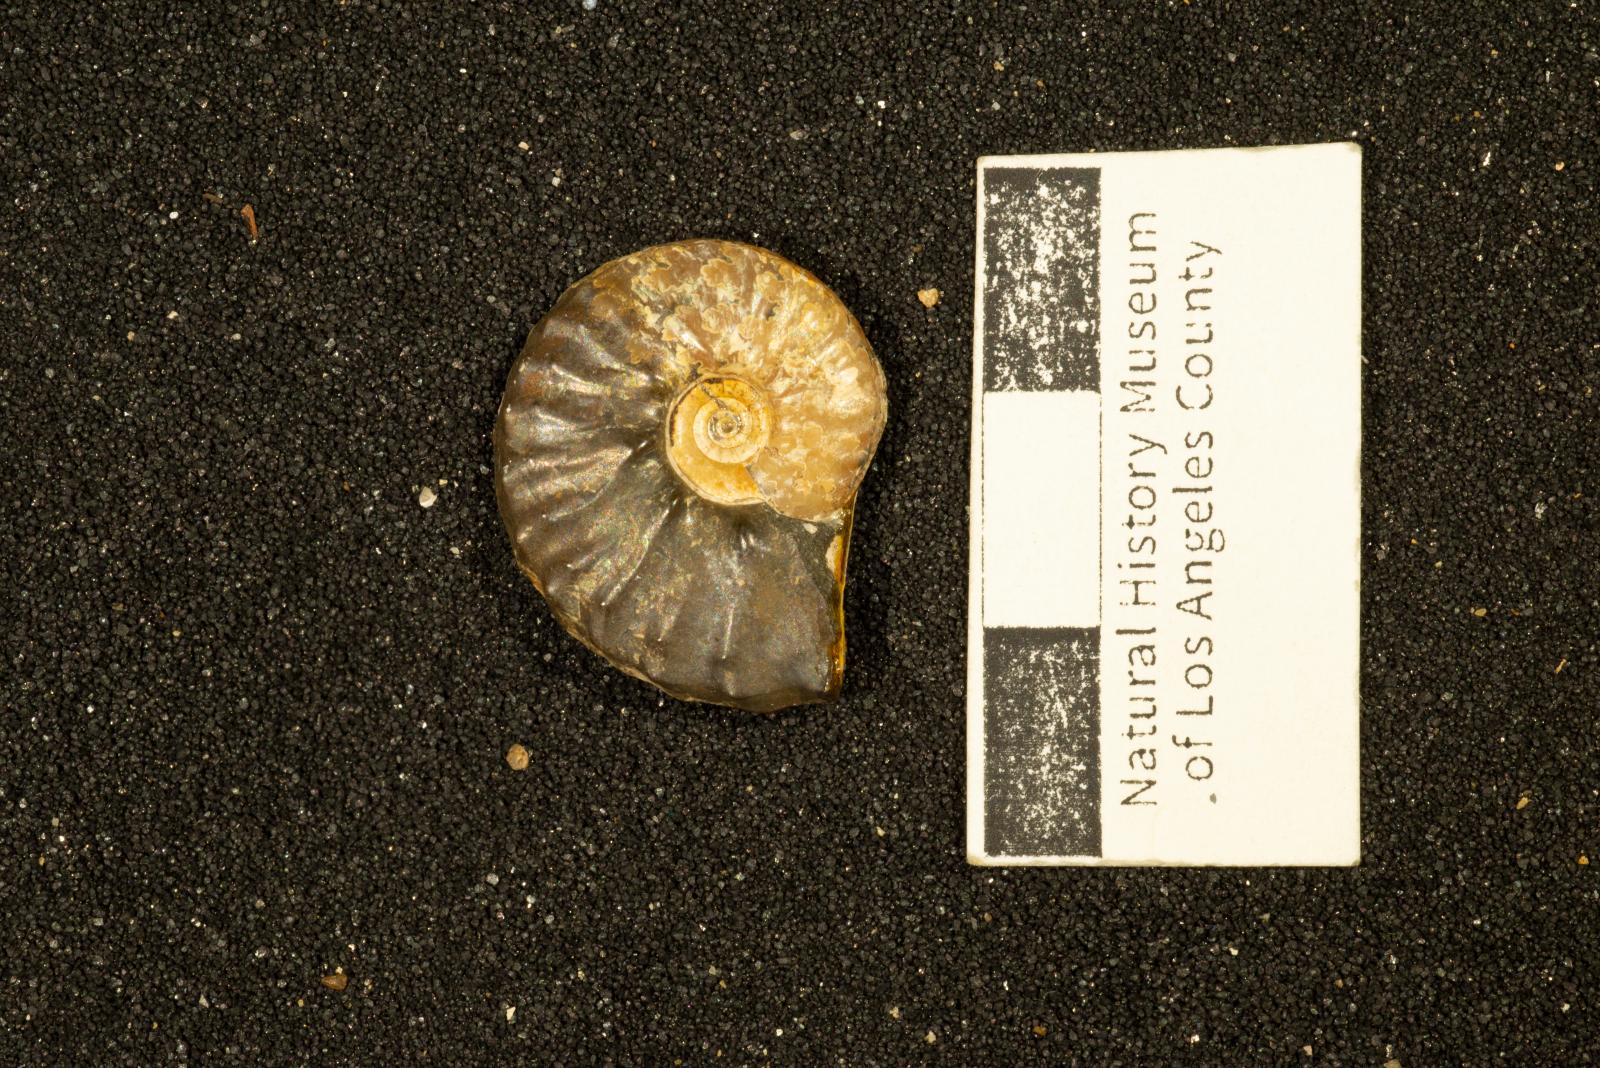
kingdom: Animalia
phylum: Mollusca
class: Cephalopoda
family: Collignoniceratidae
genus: Subprionocyclus
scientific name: Subprionocyclus
